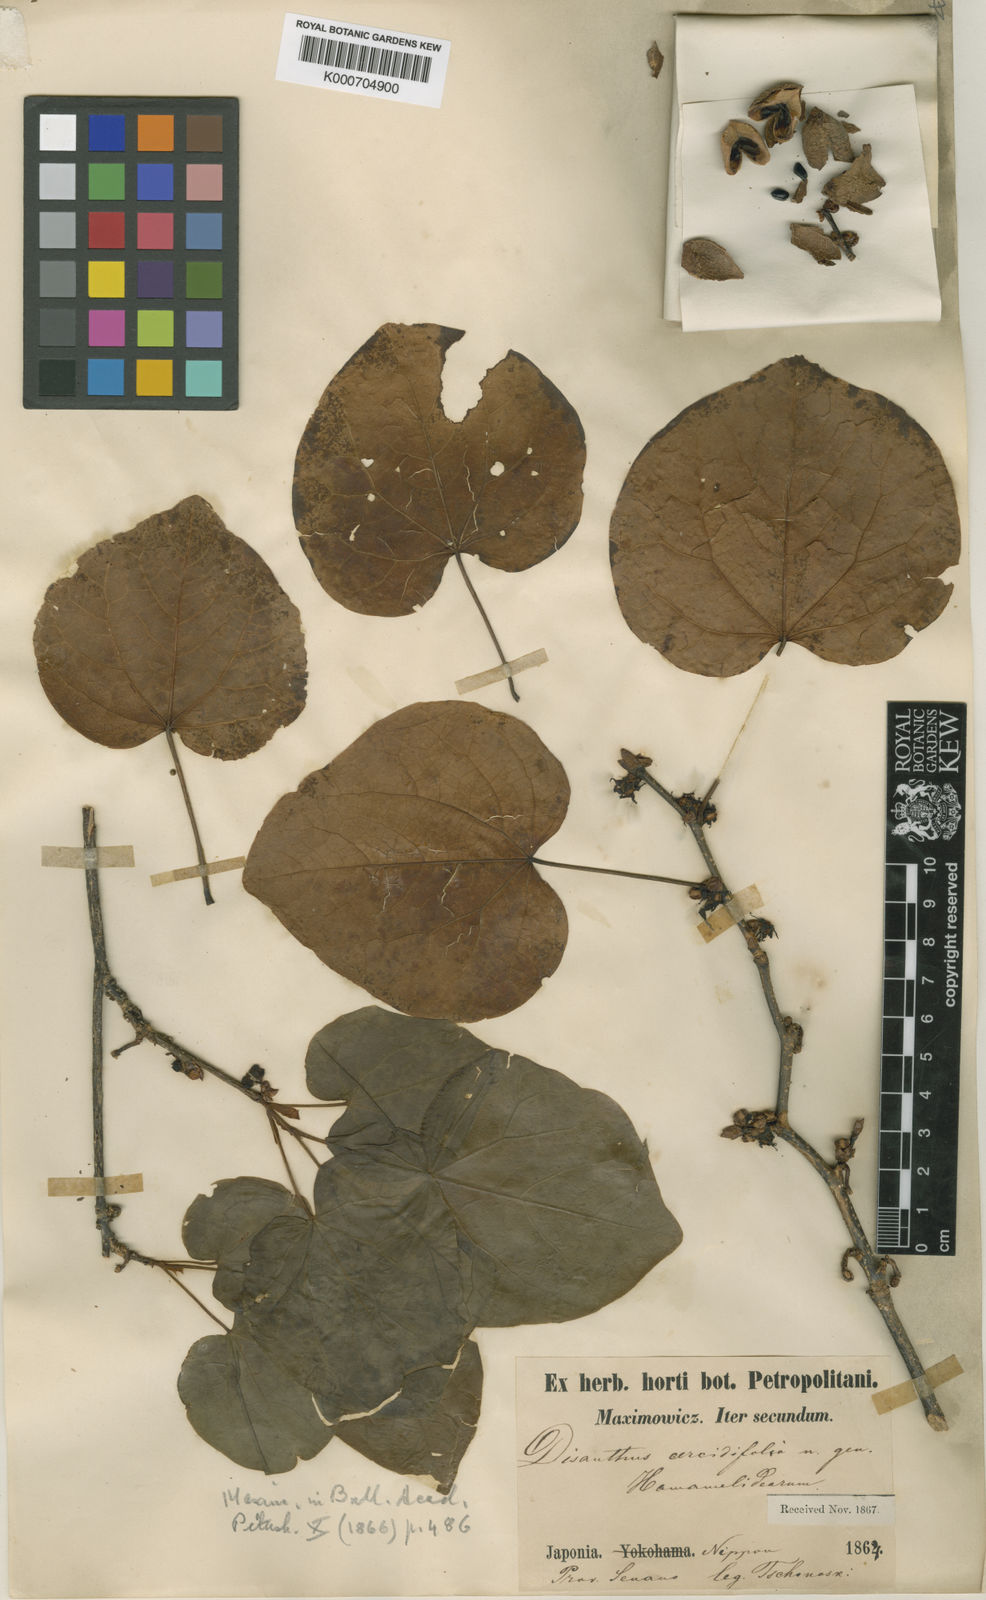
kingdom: Plantae
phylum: Tracheophyta
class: Magnoliopsida
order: Saxifragales
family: Hamamelidaceae
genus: Disanthus
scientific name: Disanthus cercidifolius
